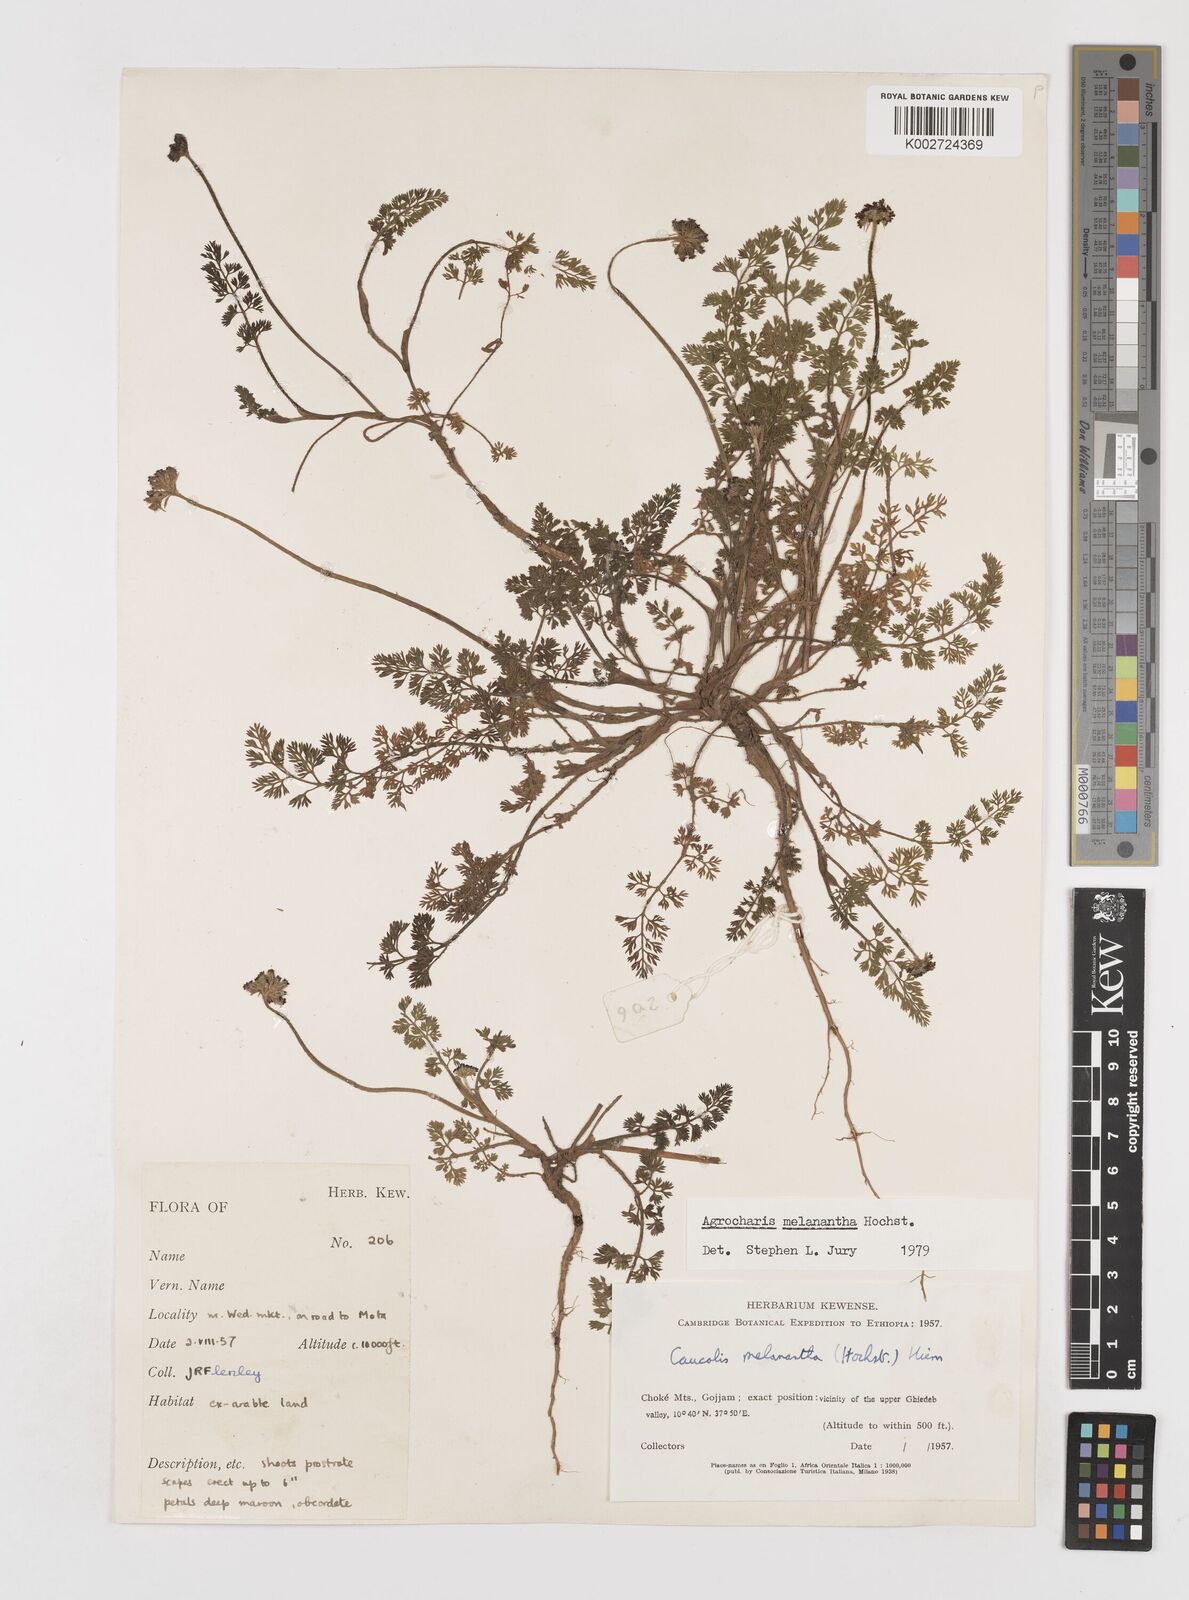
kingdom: Plantae
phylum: Tracheophyta
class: Magnoliopsida
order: Apiales
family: Apiaceae
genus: Daucus
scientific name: Daucus melananthus
